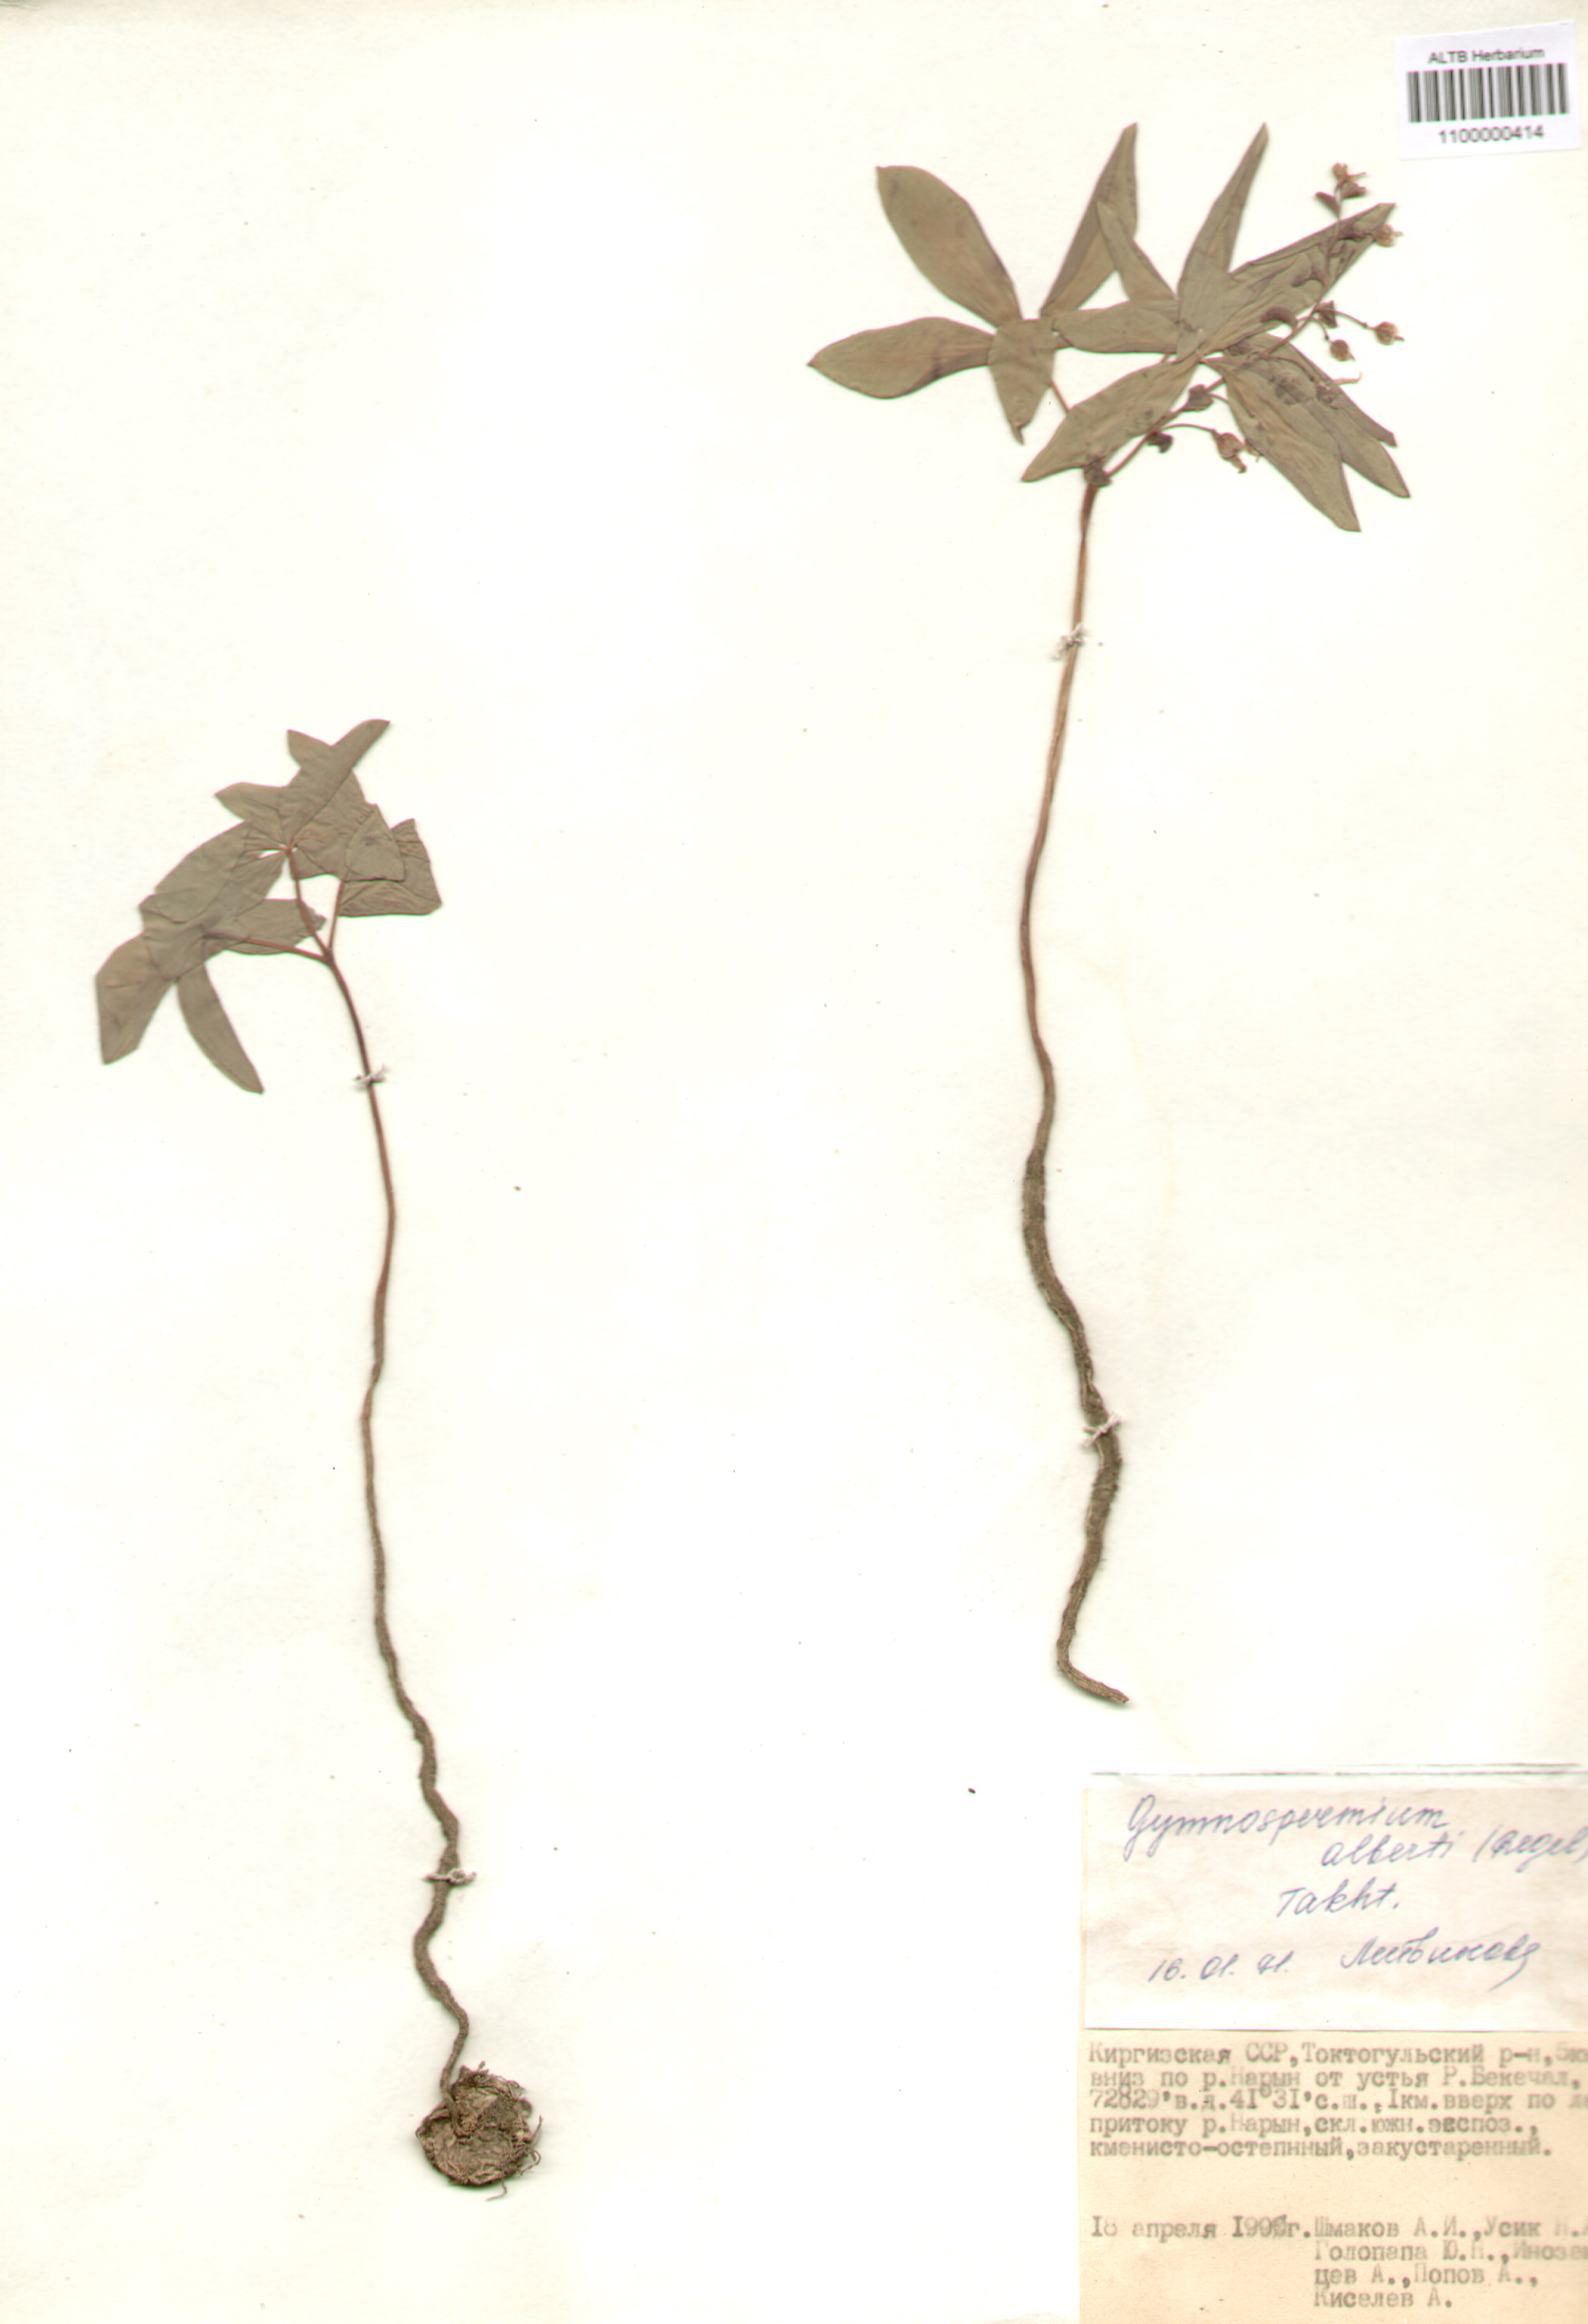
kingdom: Plantae
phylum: Tracheophyta
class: Magnoliopsida
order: Ranunculales
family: Berberidaceae
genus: Gymnospermium
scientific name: Gymnospermium alberti
